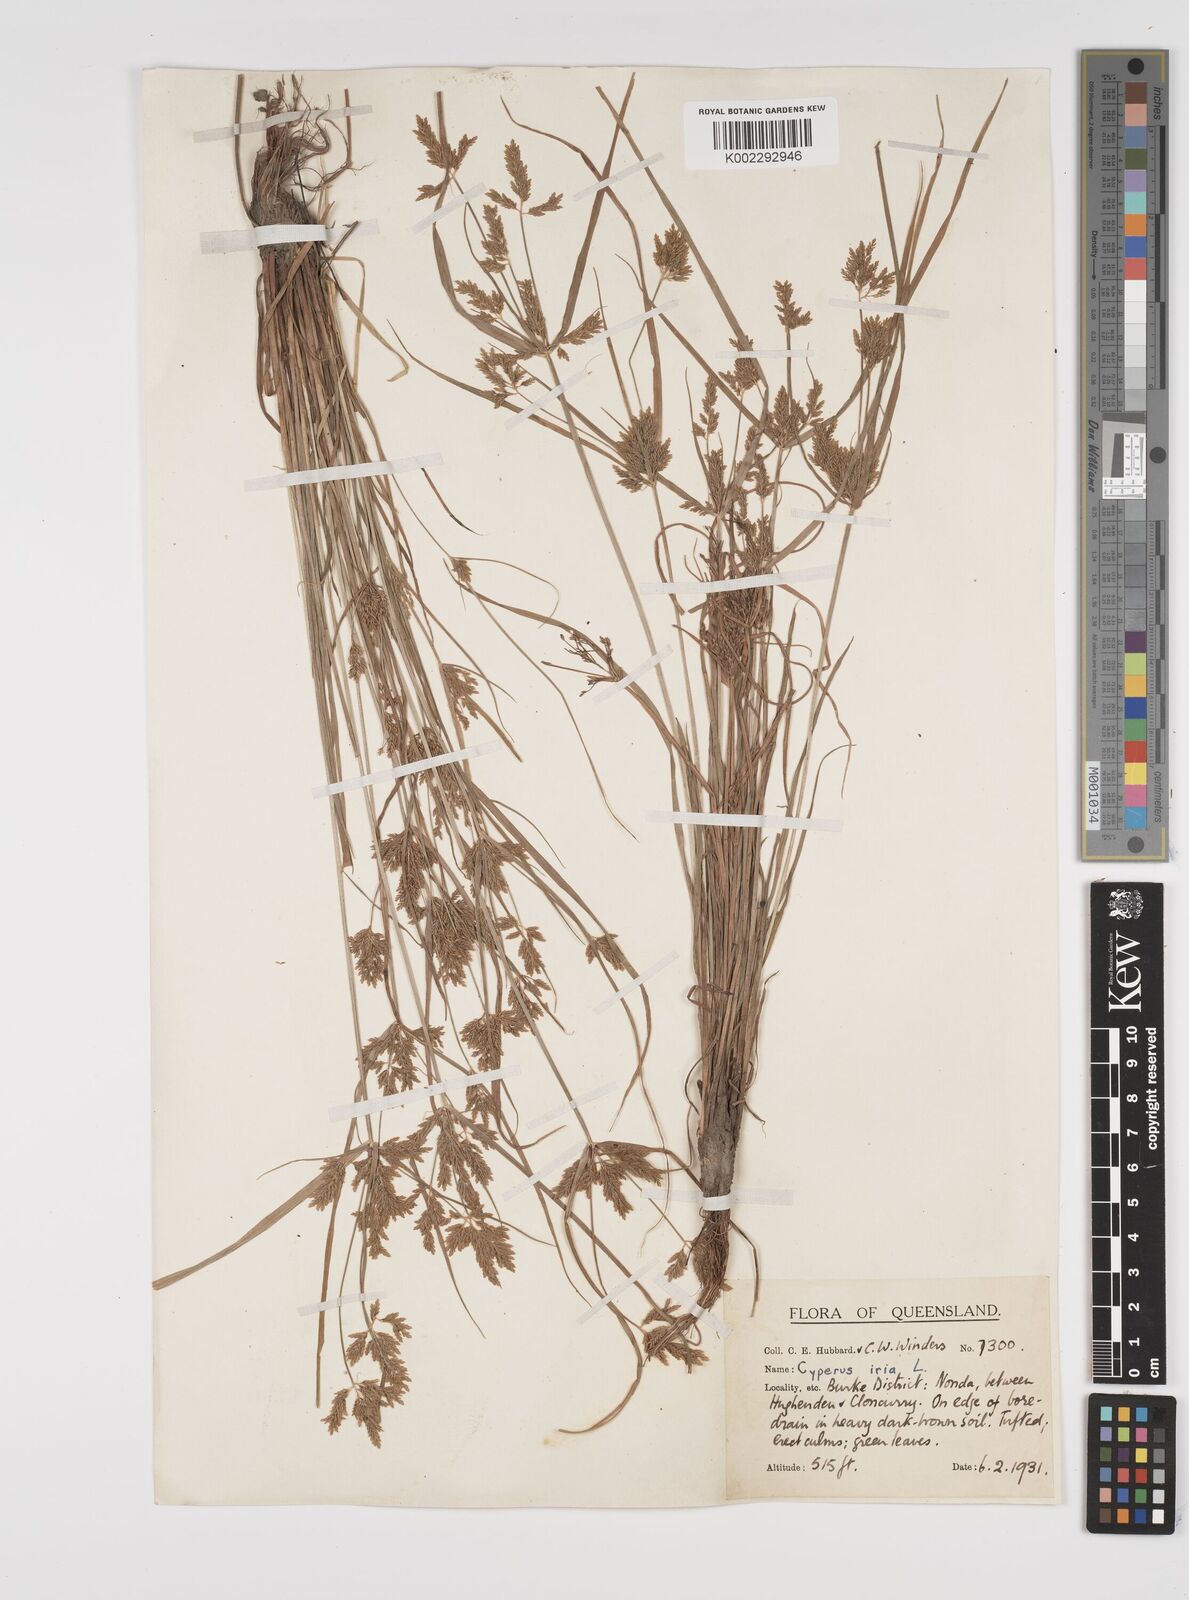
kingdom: Plantae
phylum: Tracheophyta
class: Liliopsida
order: Poales
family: Cyperaceae
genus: Cyperus
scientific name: Cyperus iria
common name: Ricefield flatsedge
